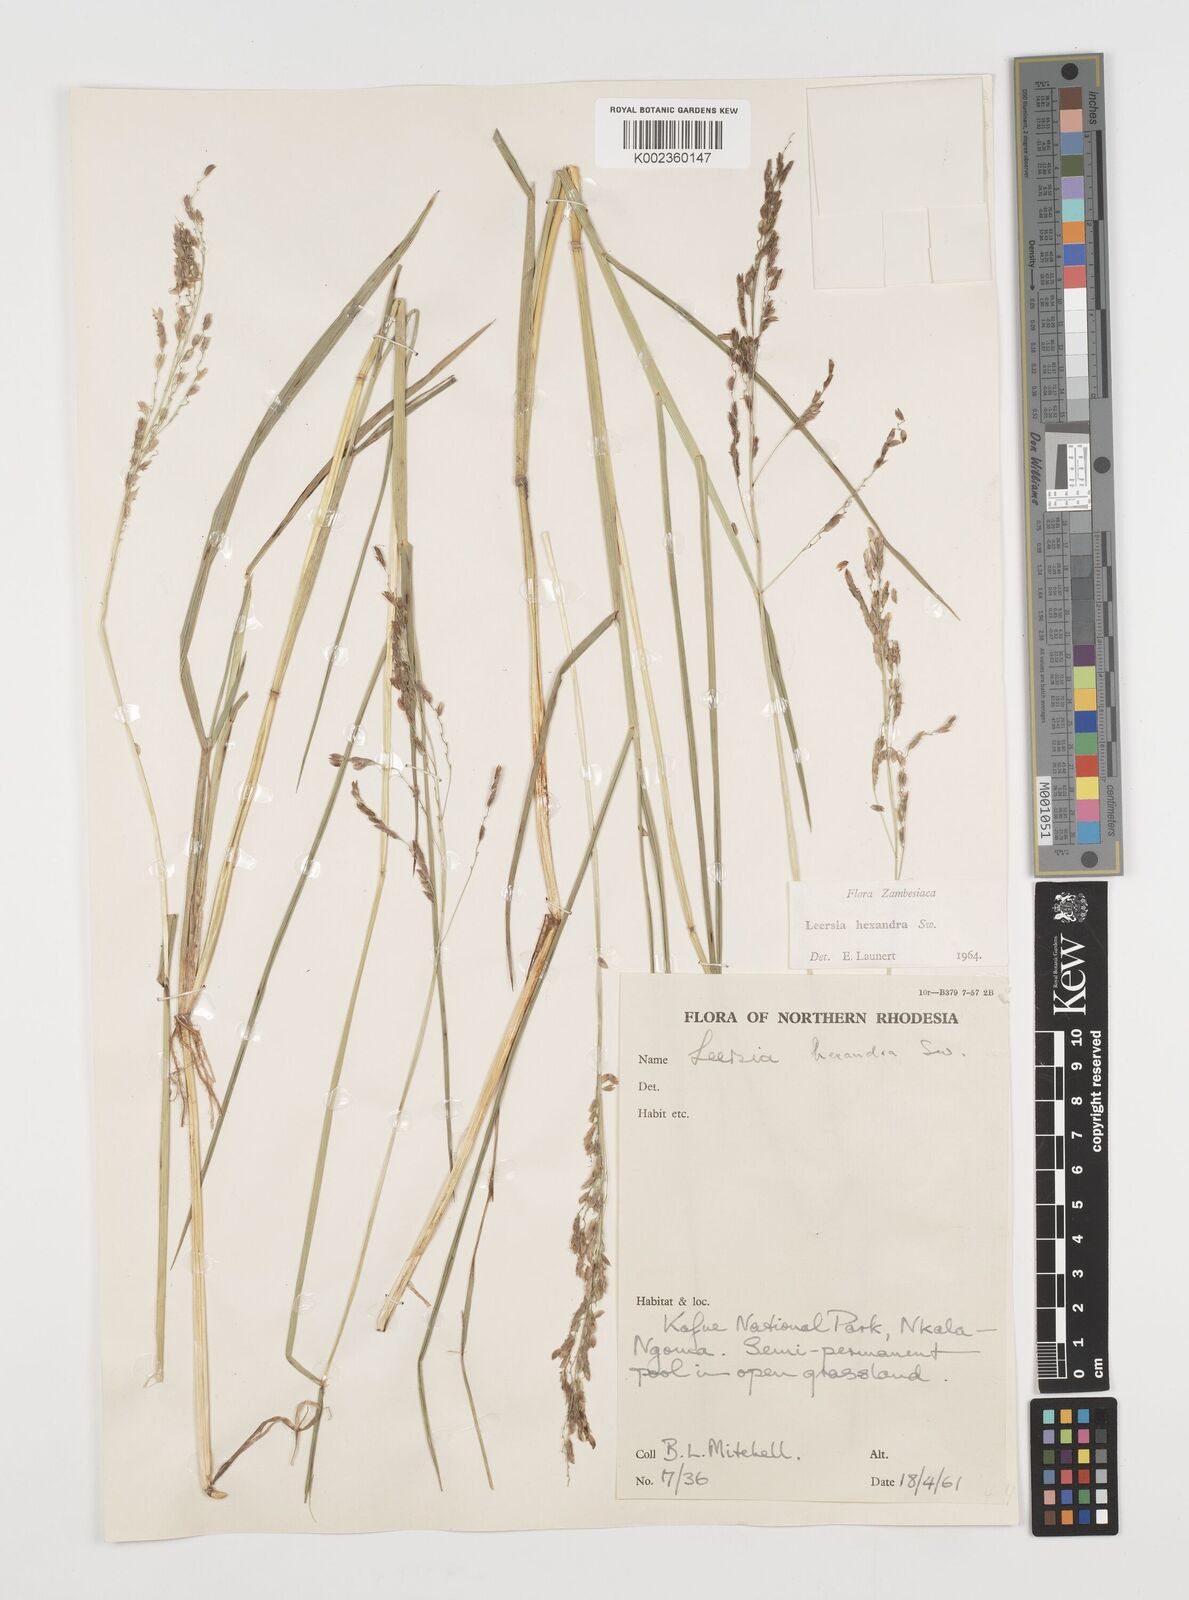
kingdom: Plantae
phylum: Tracheophyta
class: Liliopsida
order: Poales
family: Poaceae
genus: Leersia
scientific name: Leersia hexandra
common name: Southern cut grass
